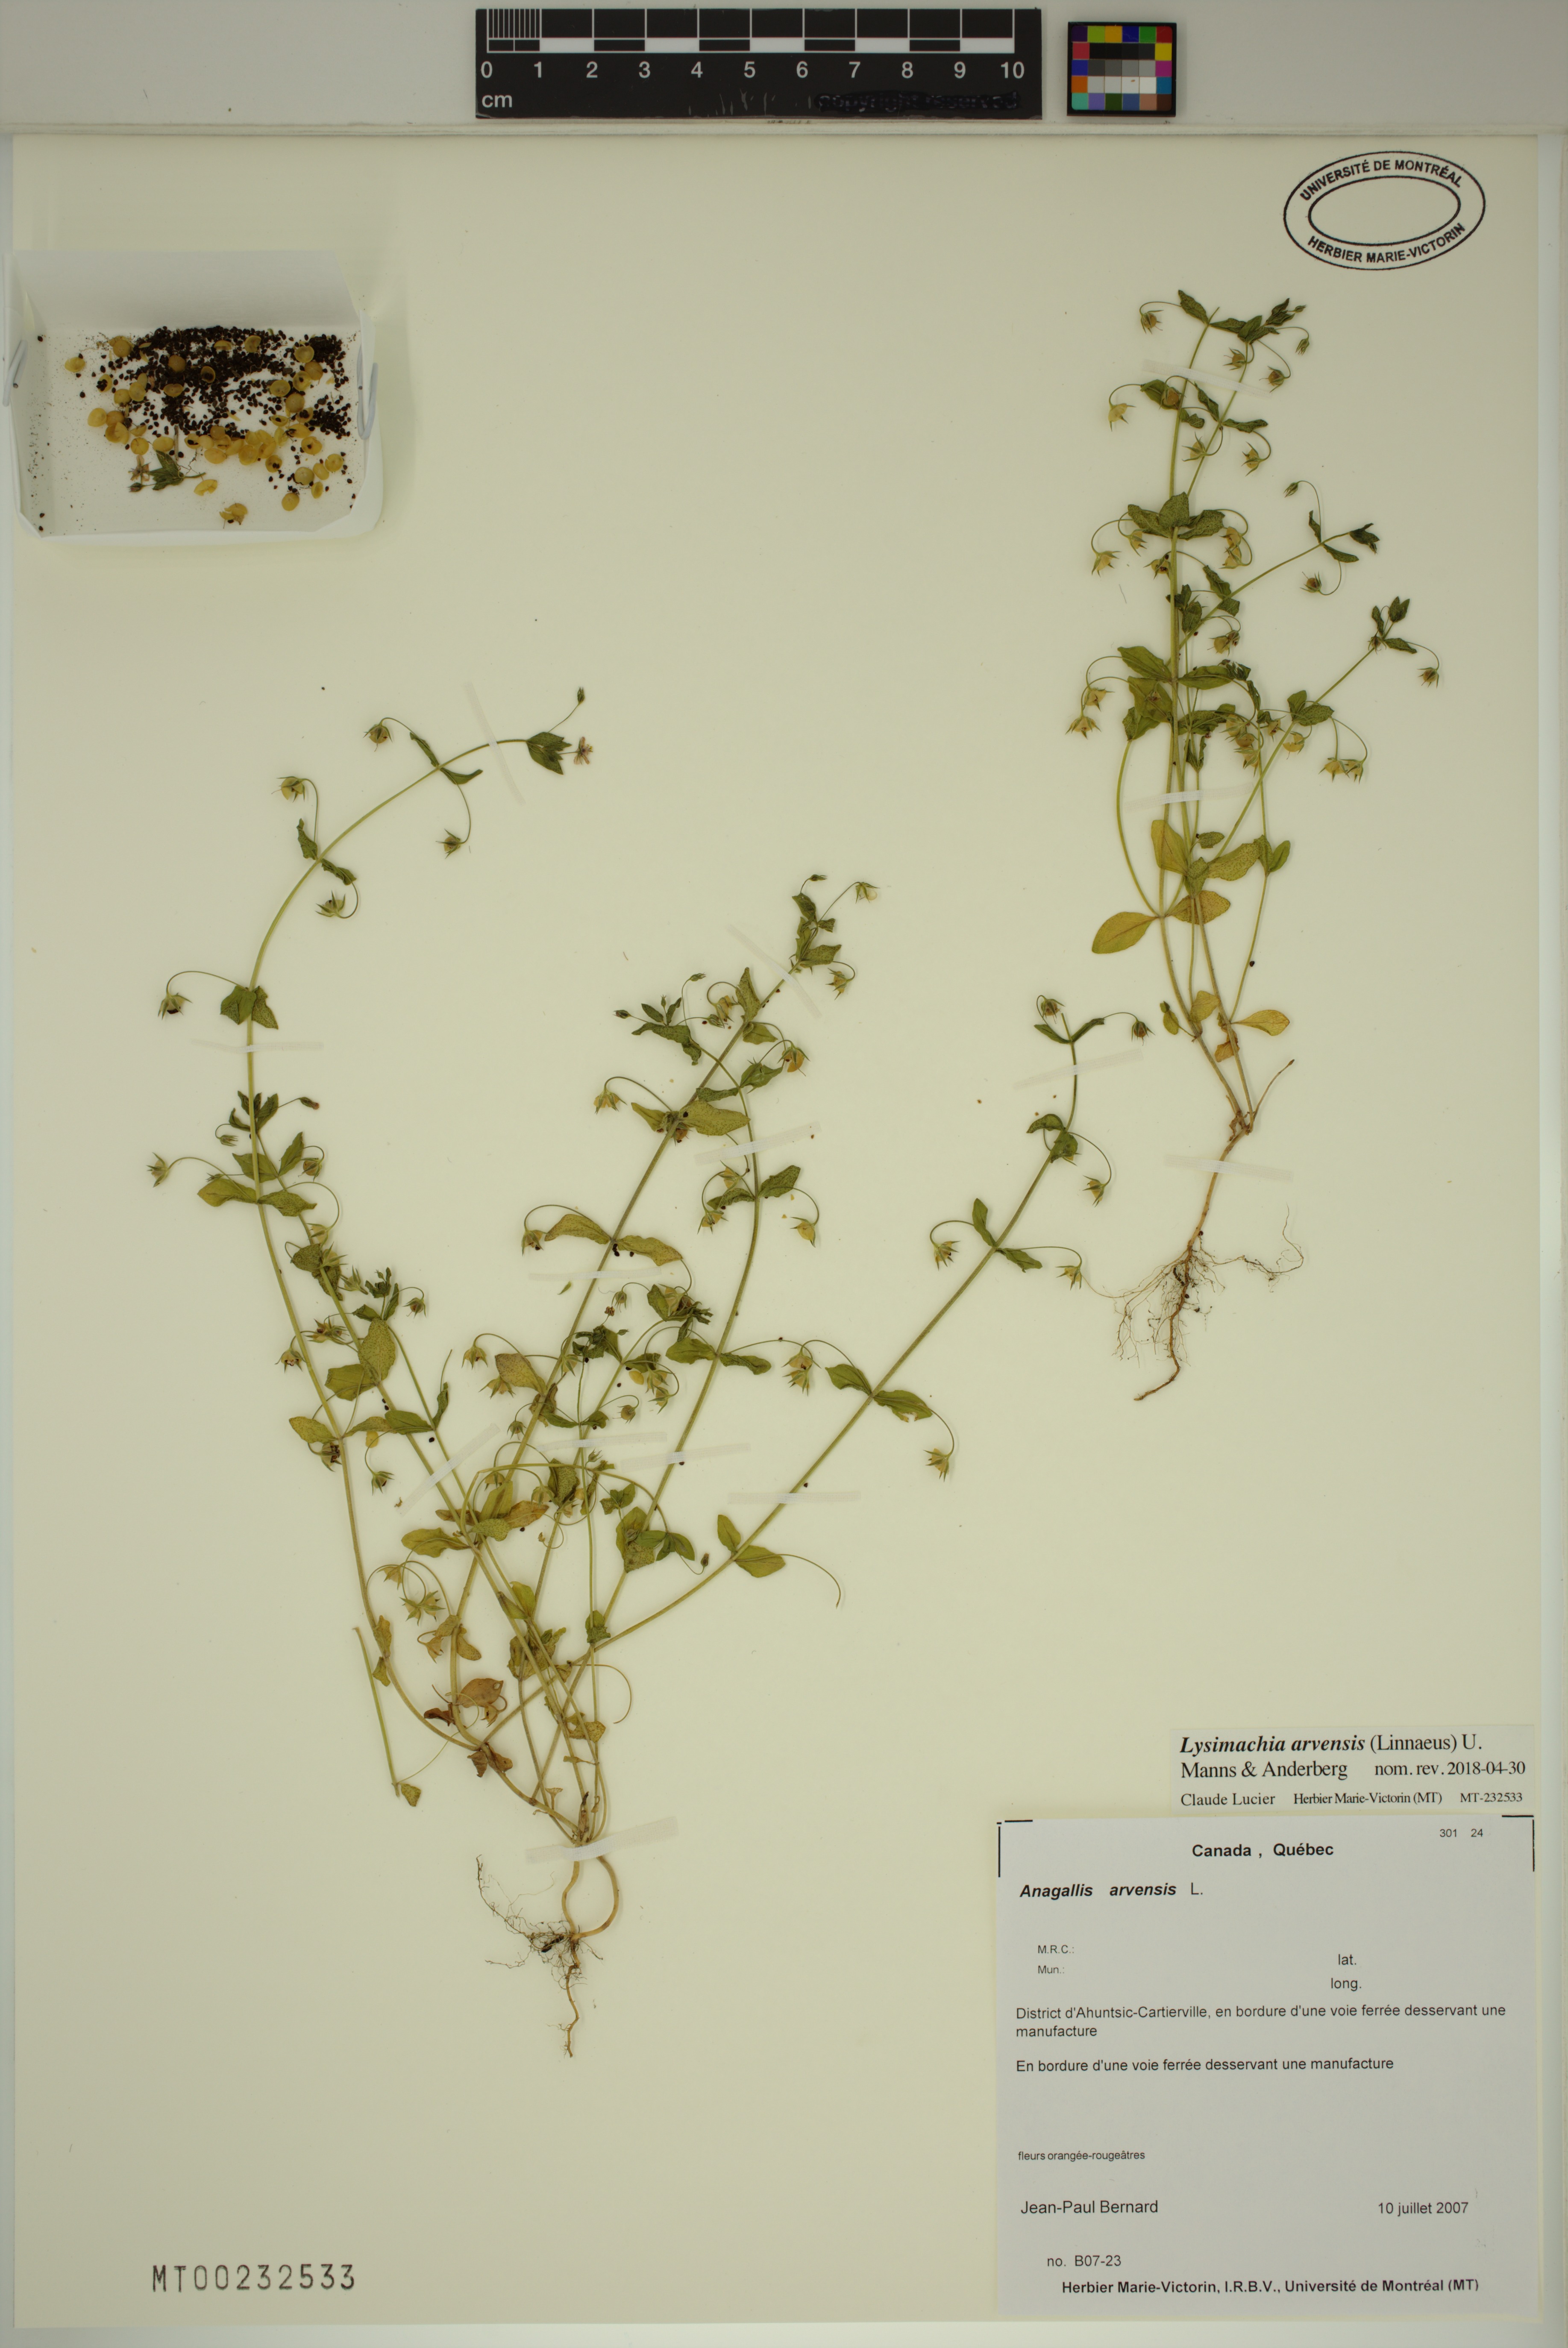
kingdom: Plantae
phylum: Tracheophyta
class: Magnoliopsida
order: Ericales
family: Primulaceae
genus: Lysimachia
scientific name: Lysimachia arvensis
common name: Scarlet pimpernel
